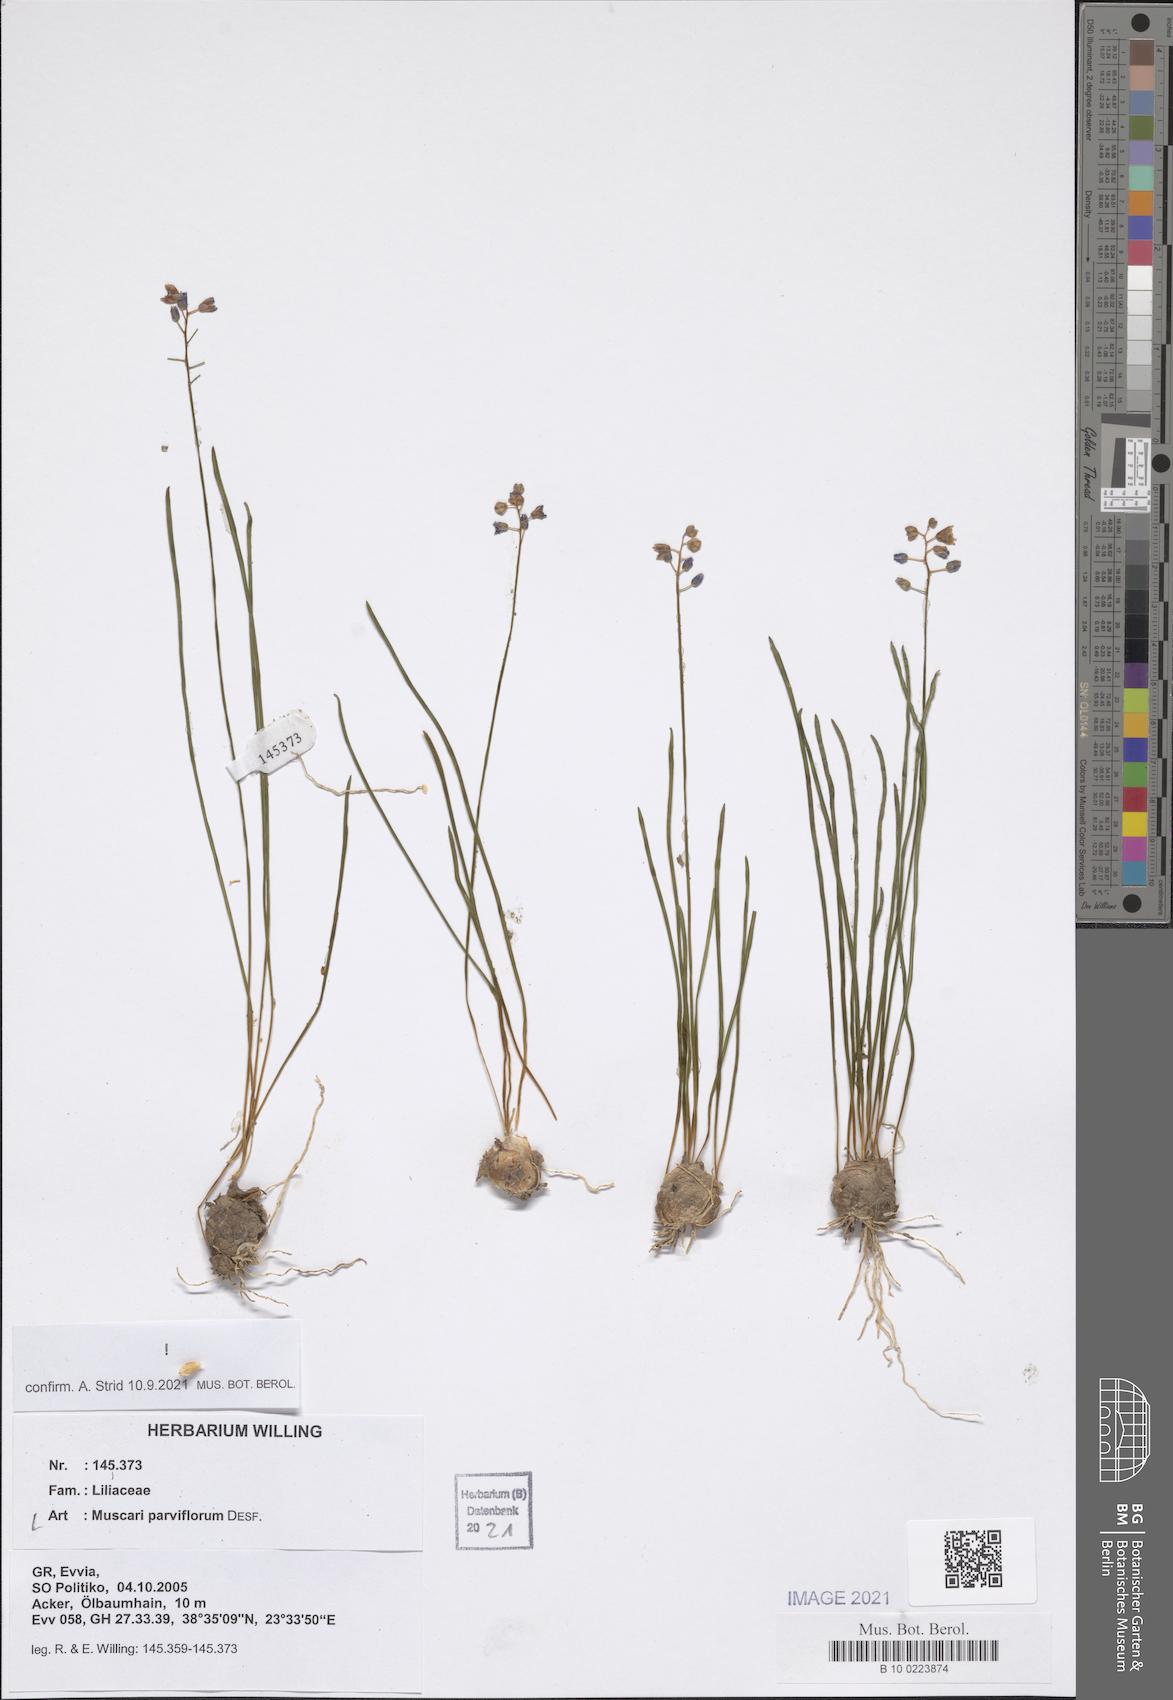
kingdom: Plantae
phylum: Tracheophyta
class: Liliopsida
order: Asparagales
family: Asparagaceae
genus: Muscari
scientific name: Muscari parviflorum
